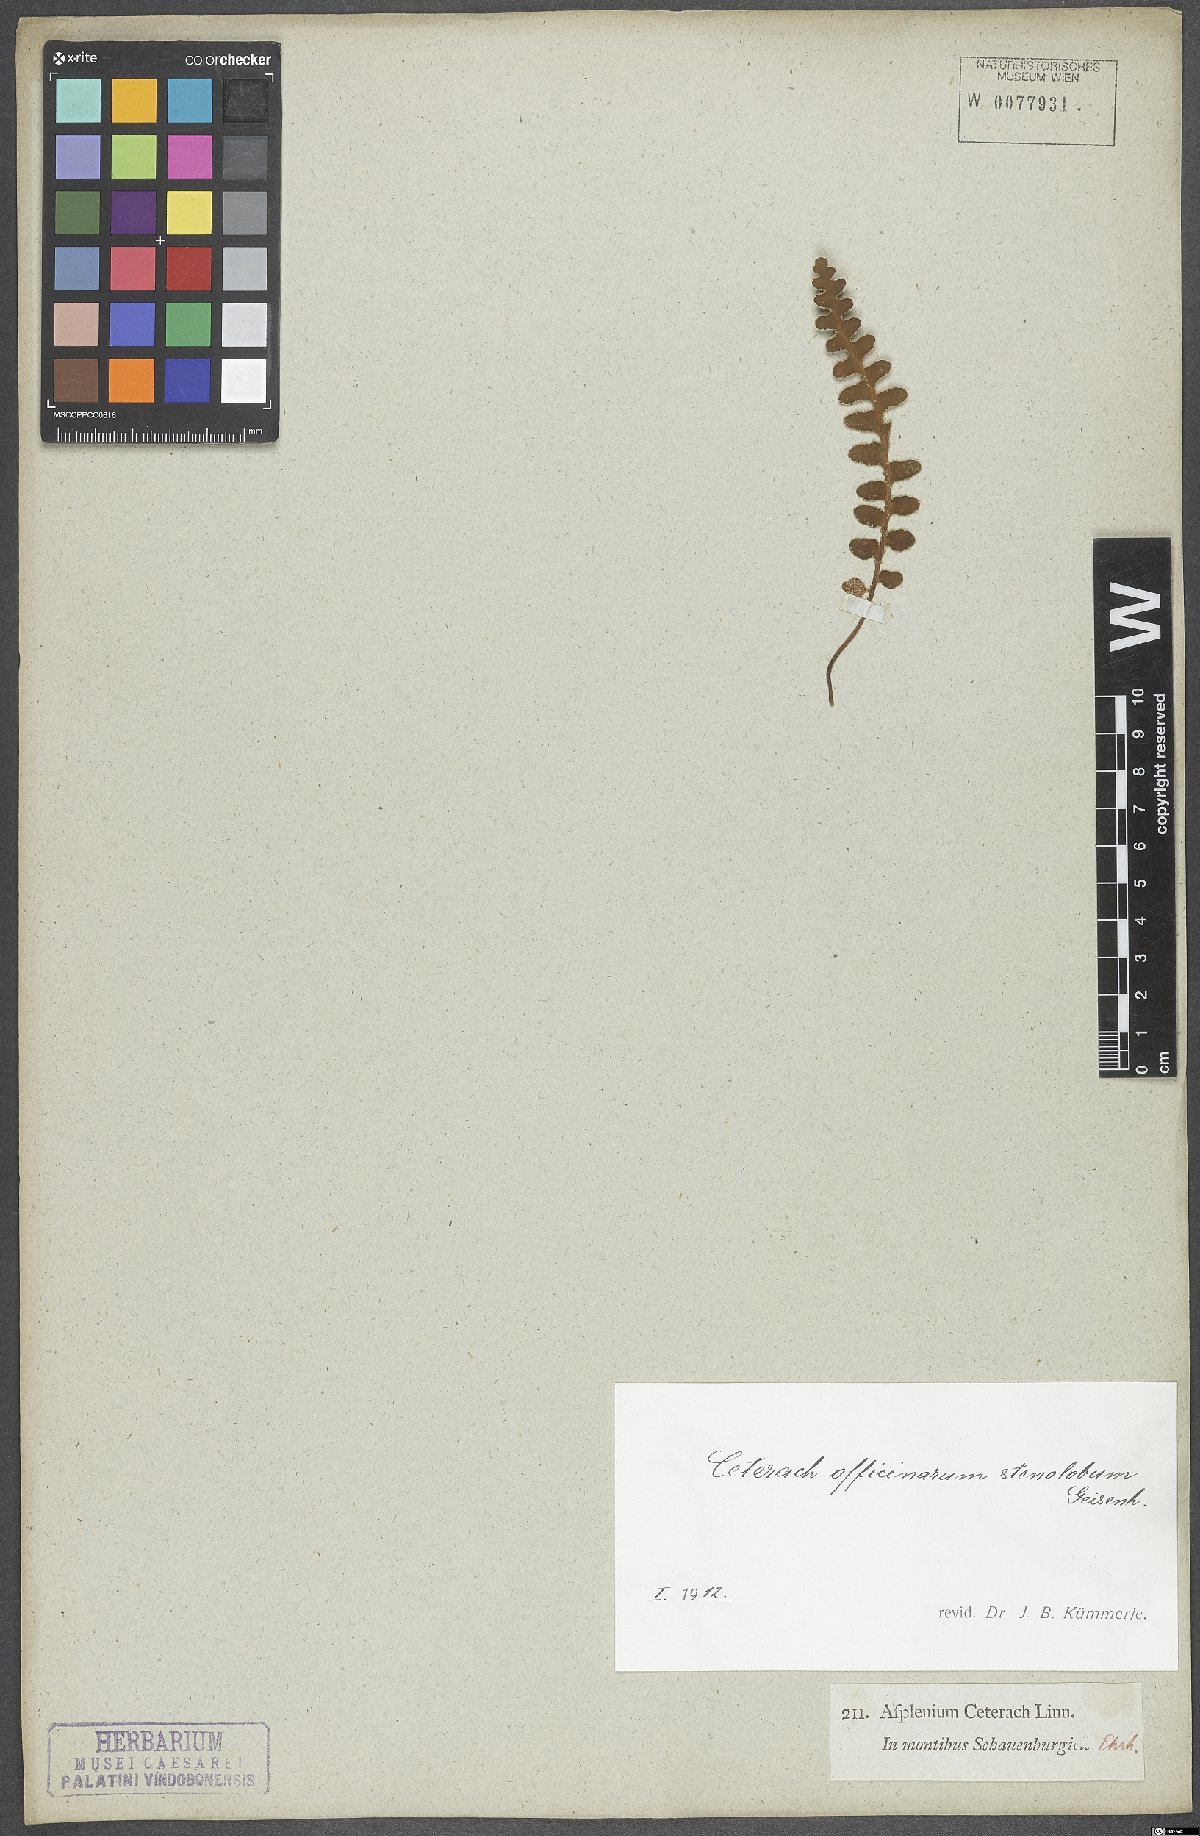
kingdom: Plantae
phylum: Tracheophyta
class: Polypodiopsida
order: Polypodiales
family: Aspleniaceae
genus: Asplenium
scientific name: Asplenium ceterach
